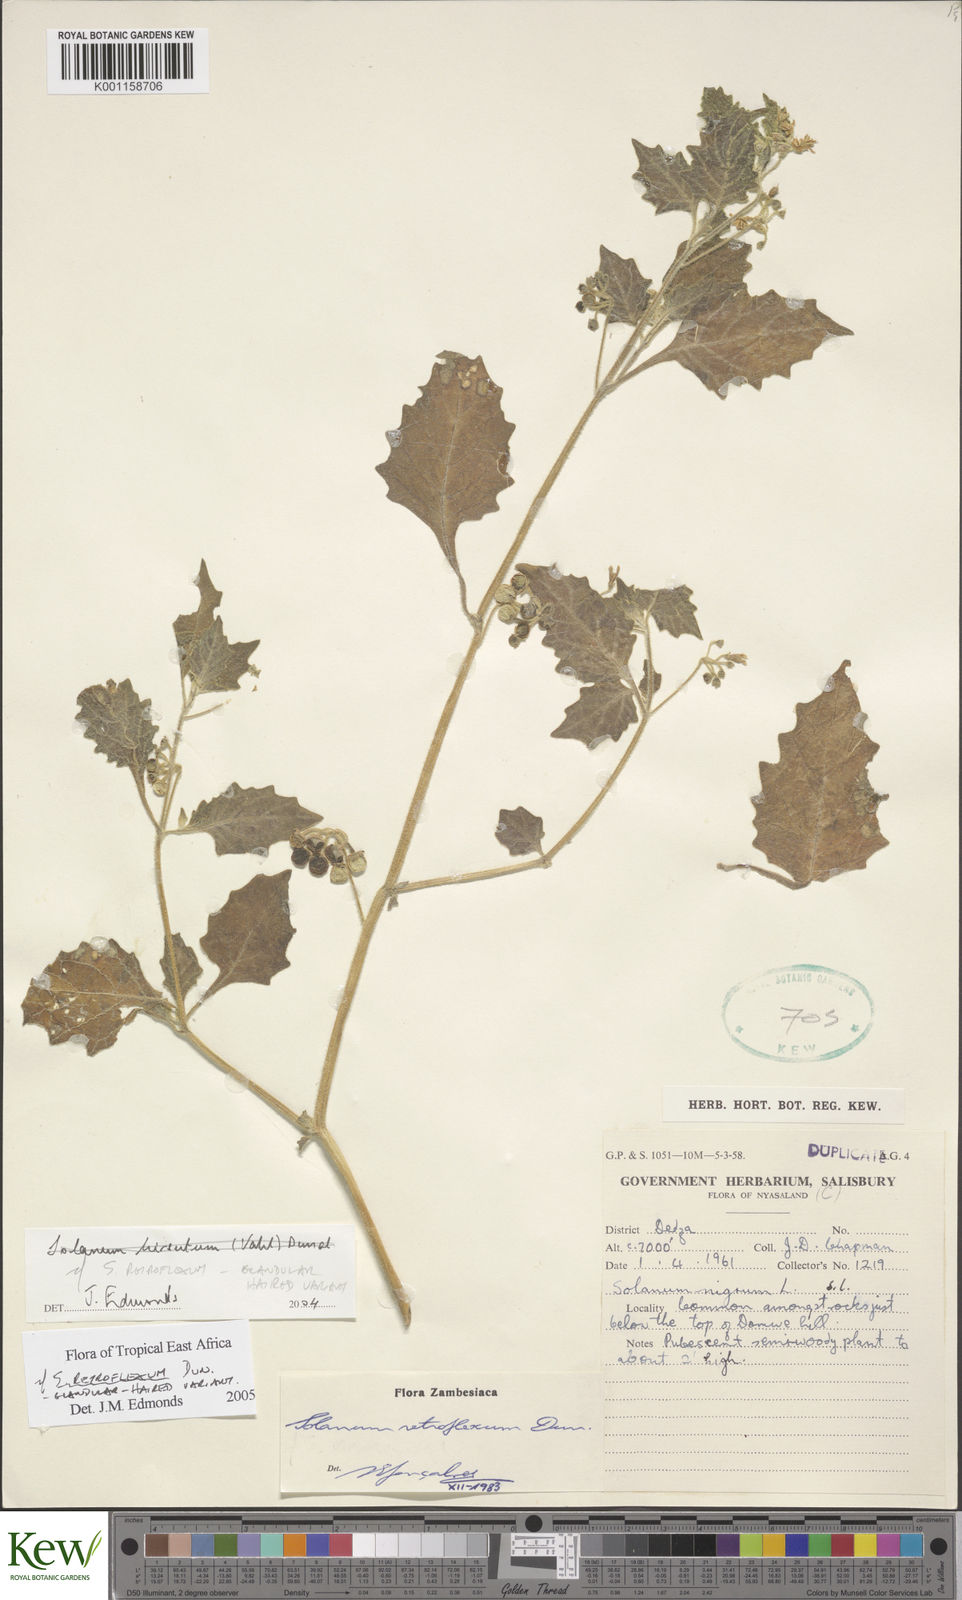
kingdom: Plantae
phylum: Tracheophyta
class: Magnoliopsida
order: Solanales
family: Solanaceae
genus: Solanum
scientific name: Solanum retroflexum
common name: Wonderberry
